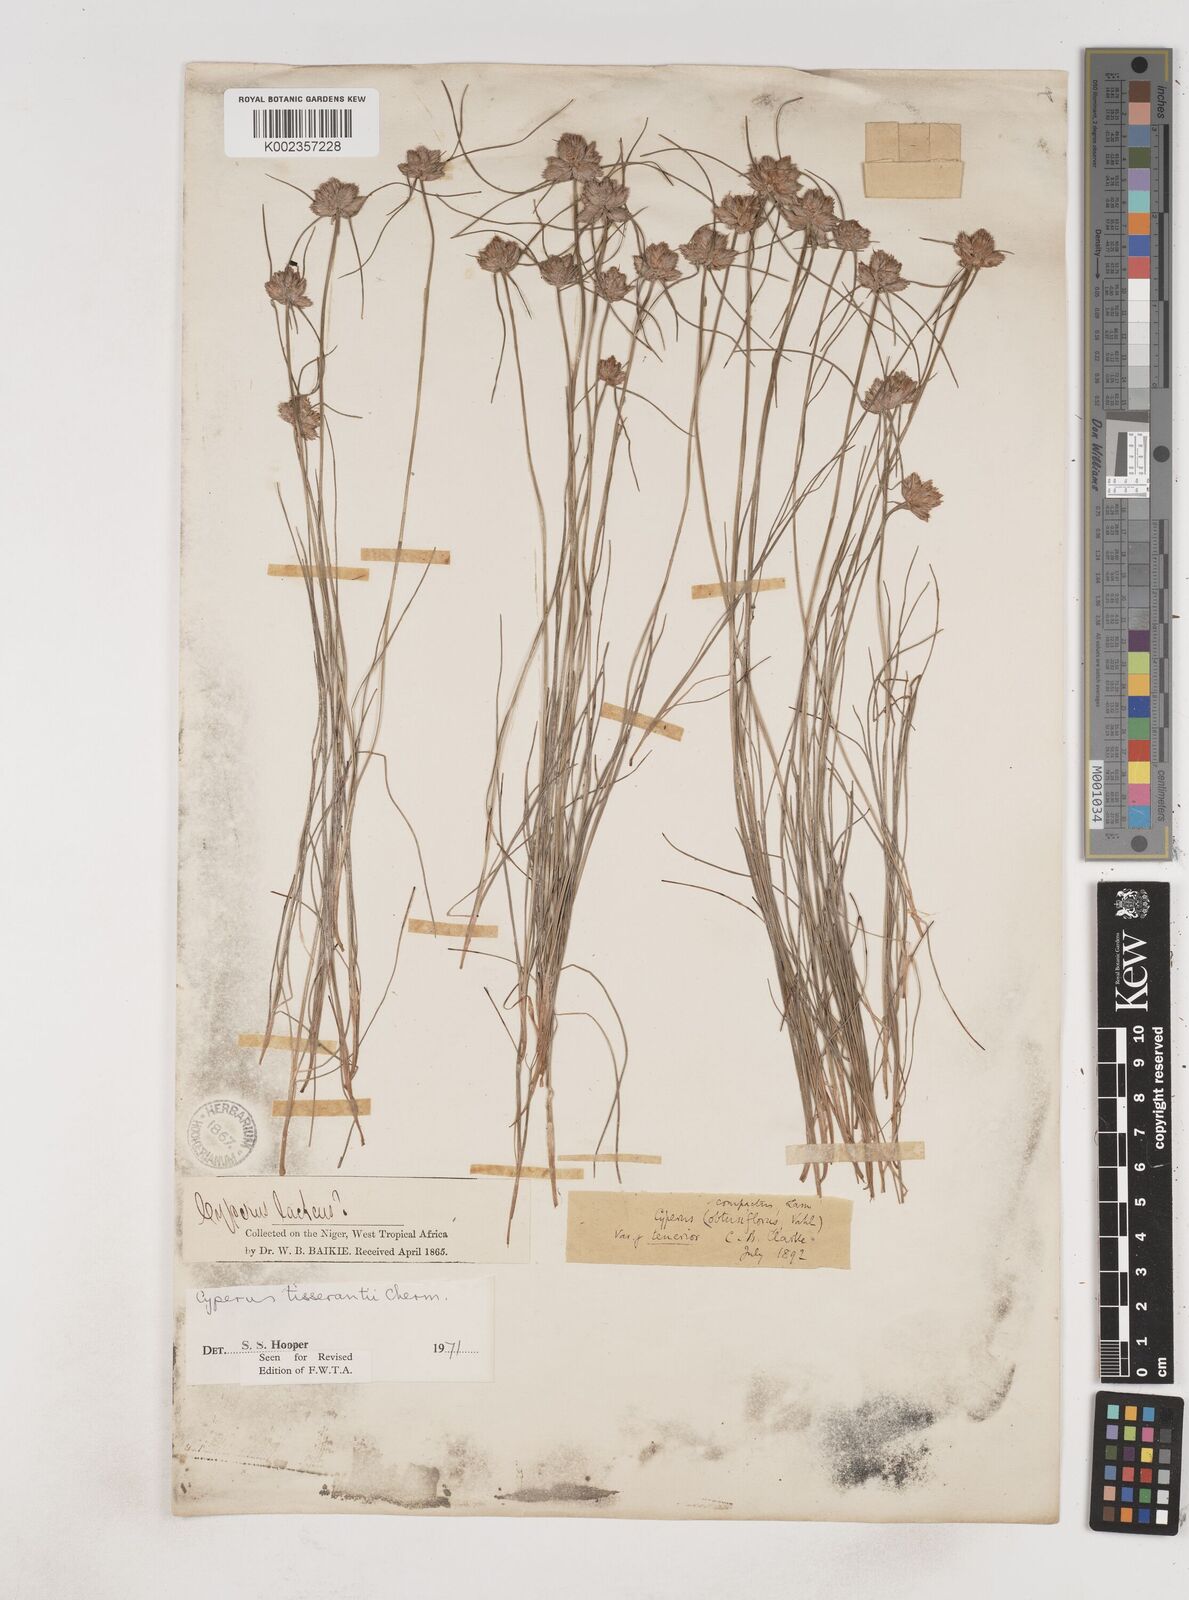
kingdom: Plantae
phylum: Tracheophyta
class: Liliopsida
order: Poales
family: Cyperaceae
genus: Cyperus
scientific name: Cyperus niveus
